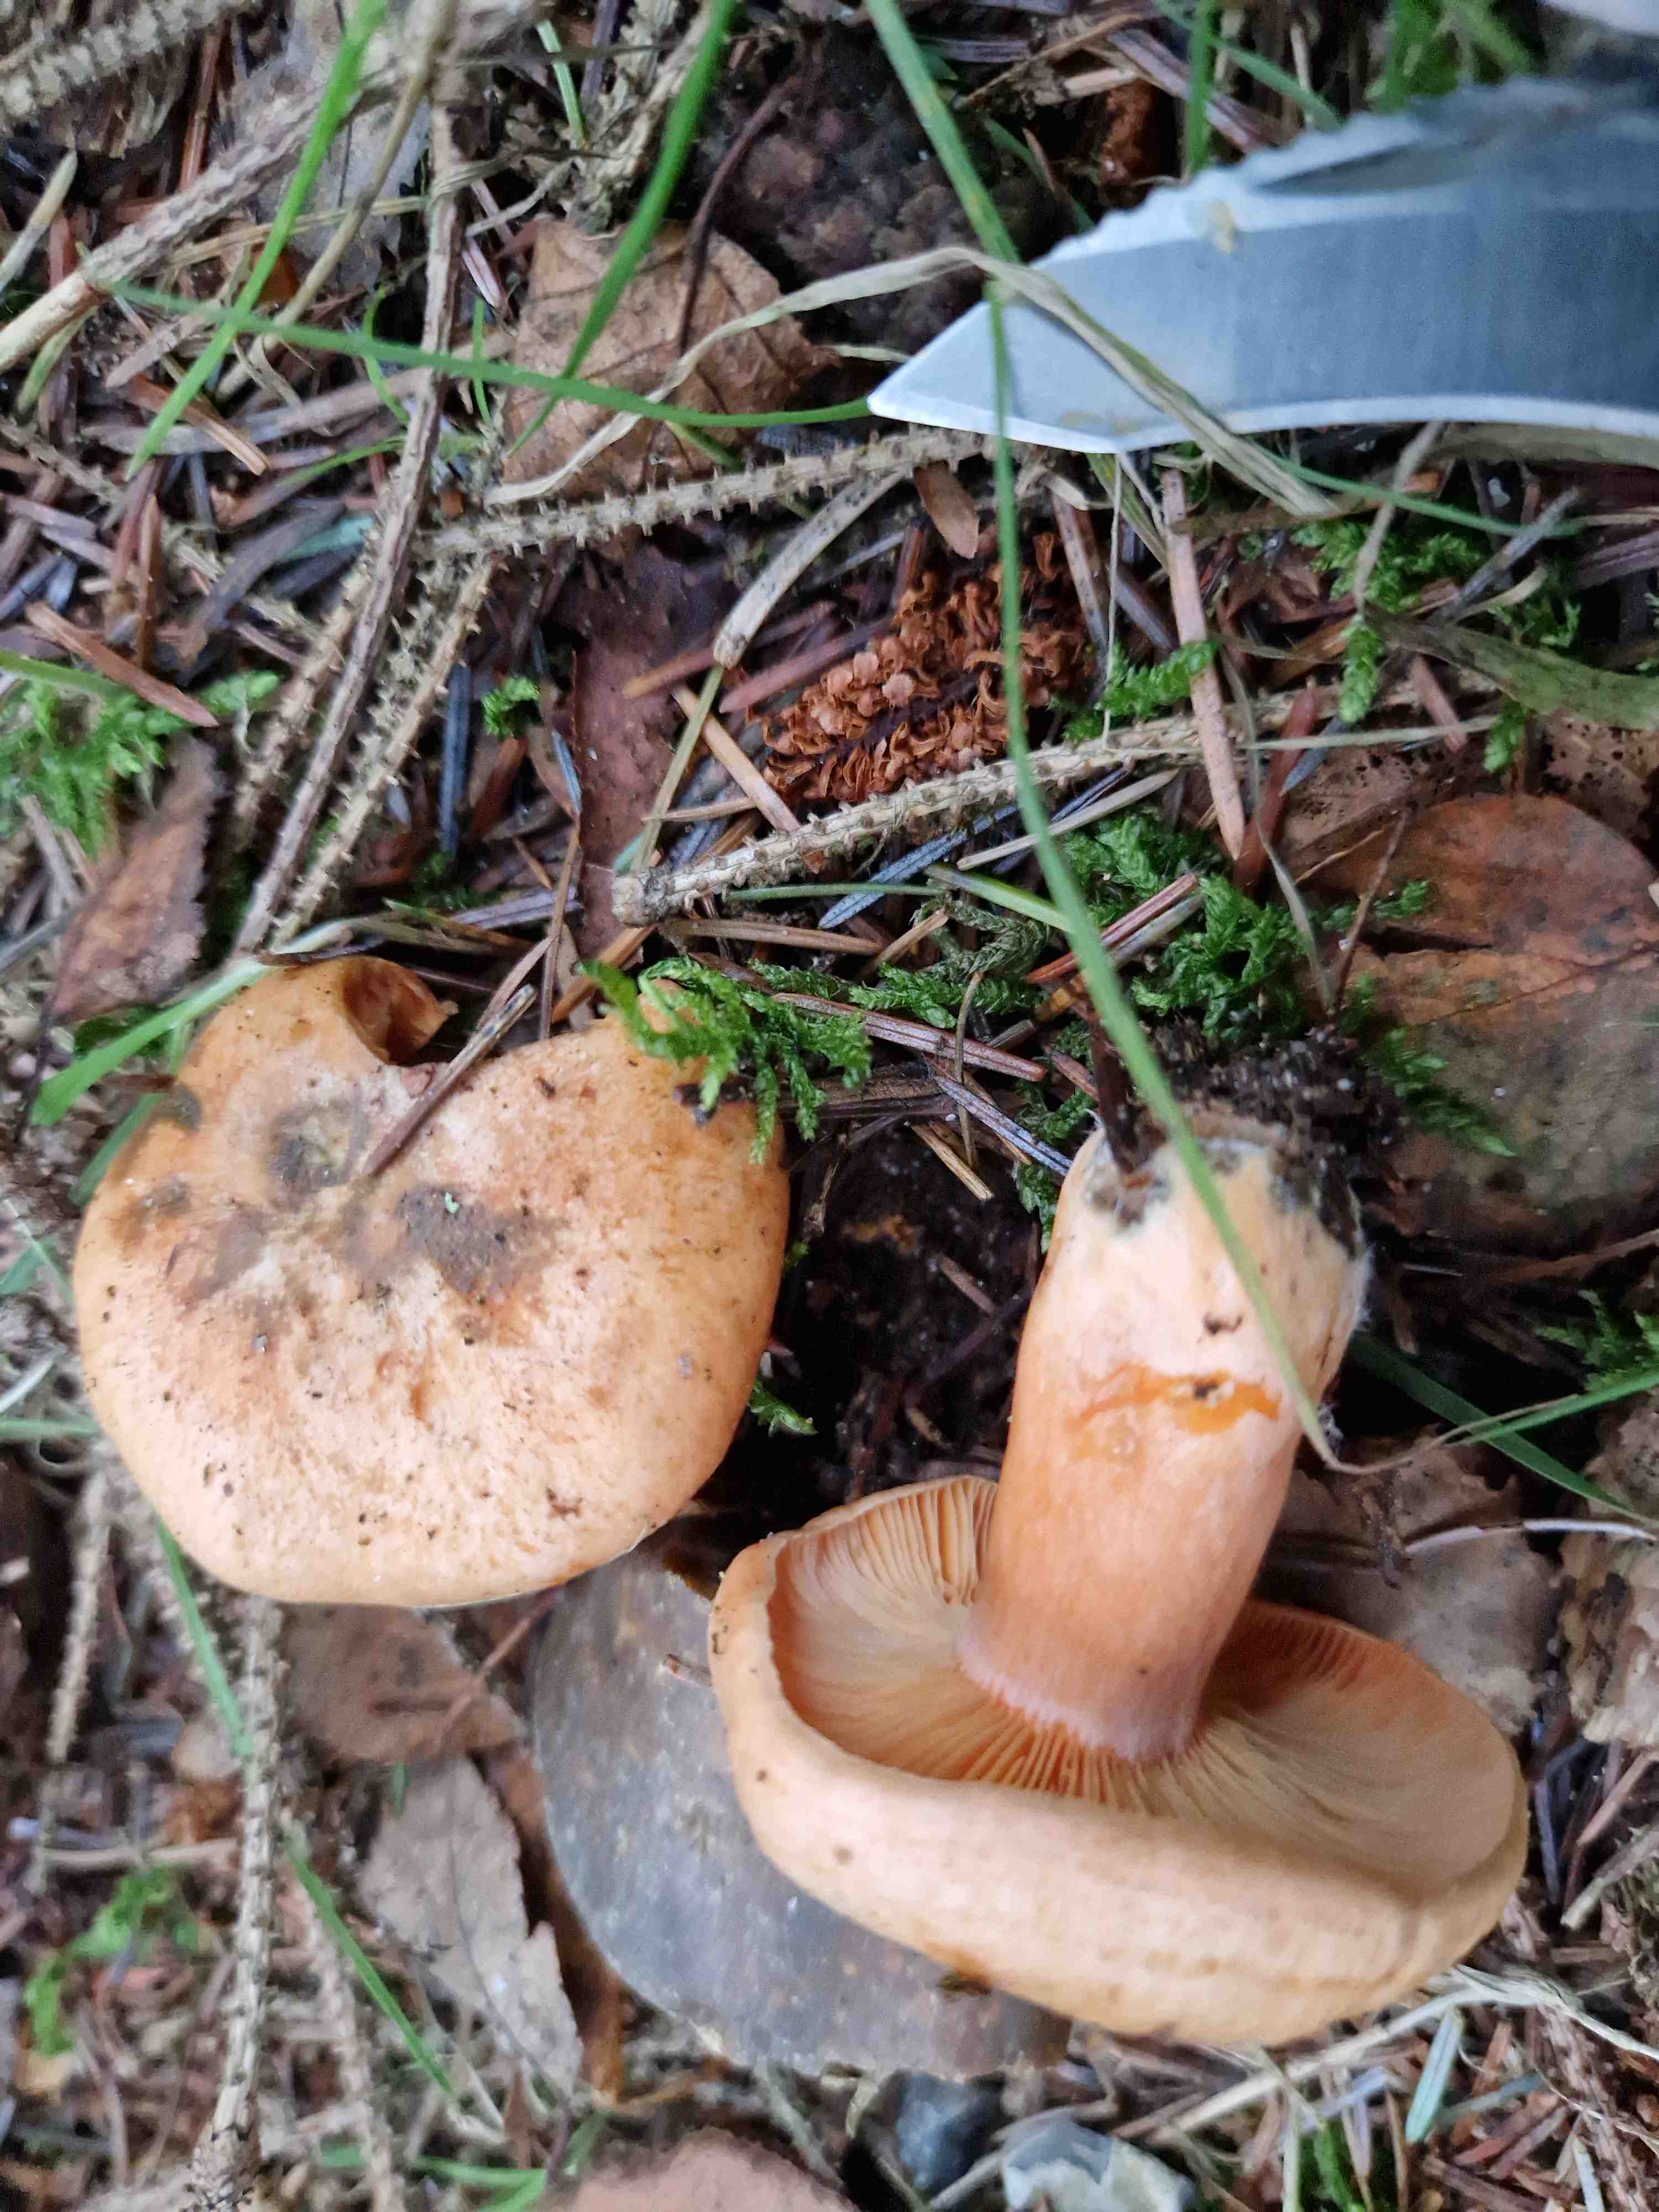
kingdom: Fungi
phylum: Basidiomycota
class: Agaricomycetes
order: Russulales
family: Russulaceae
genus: Lactarius
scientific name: Lactarius deterrimus
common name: gran-mælkehat
